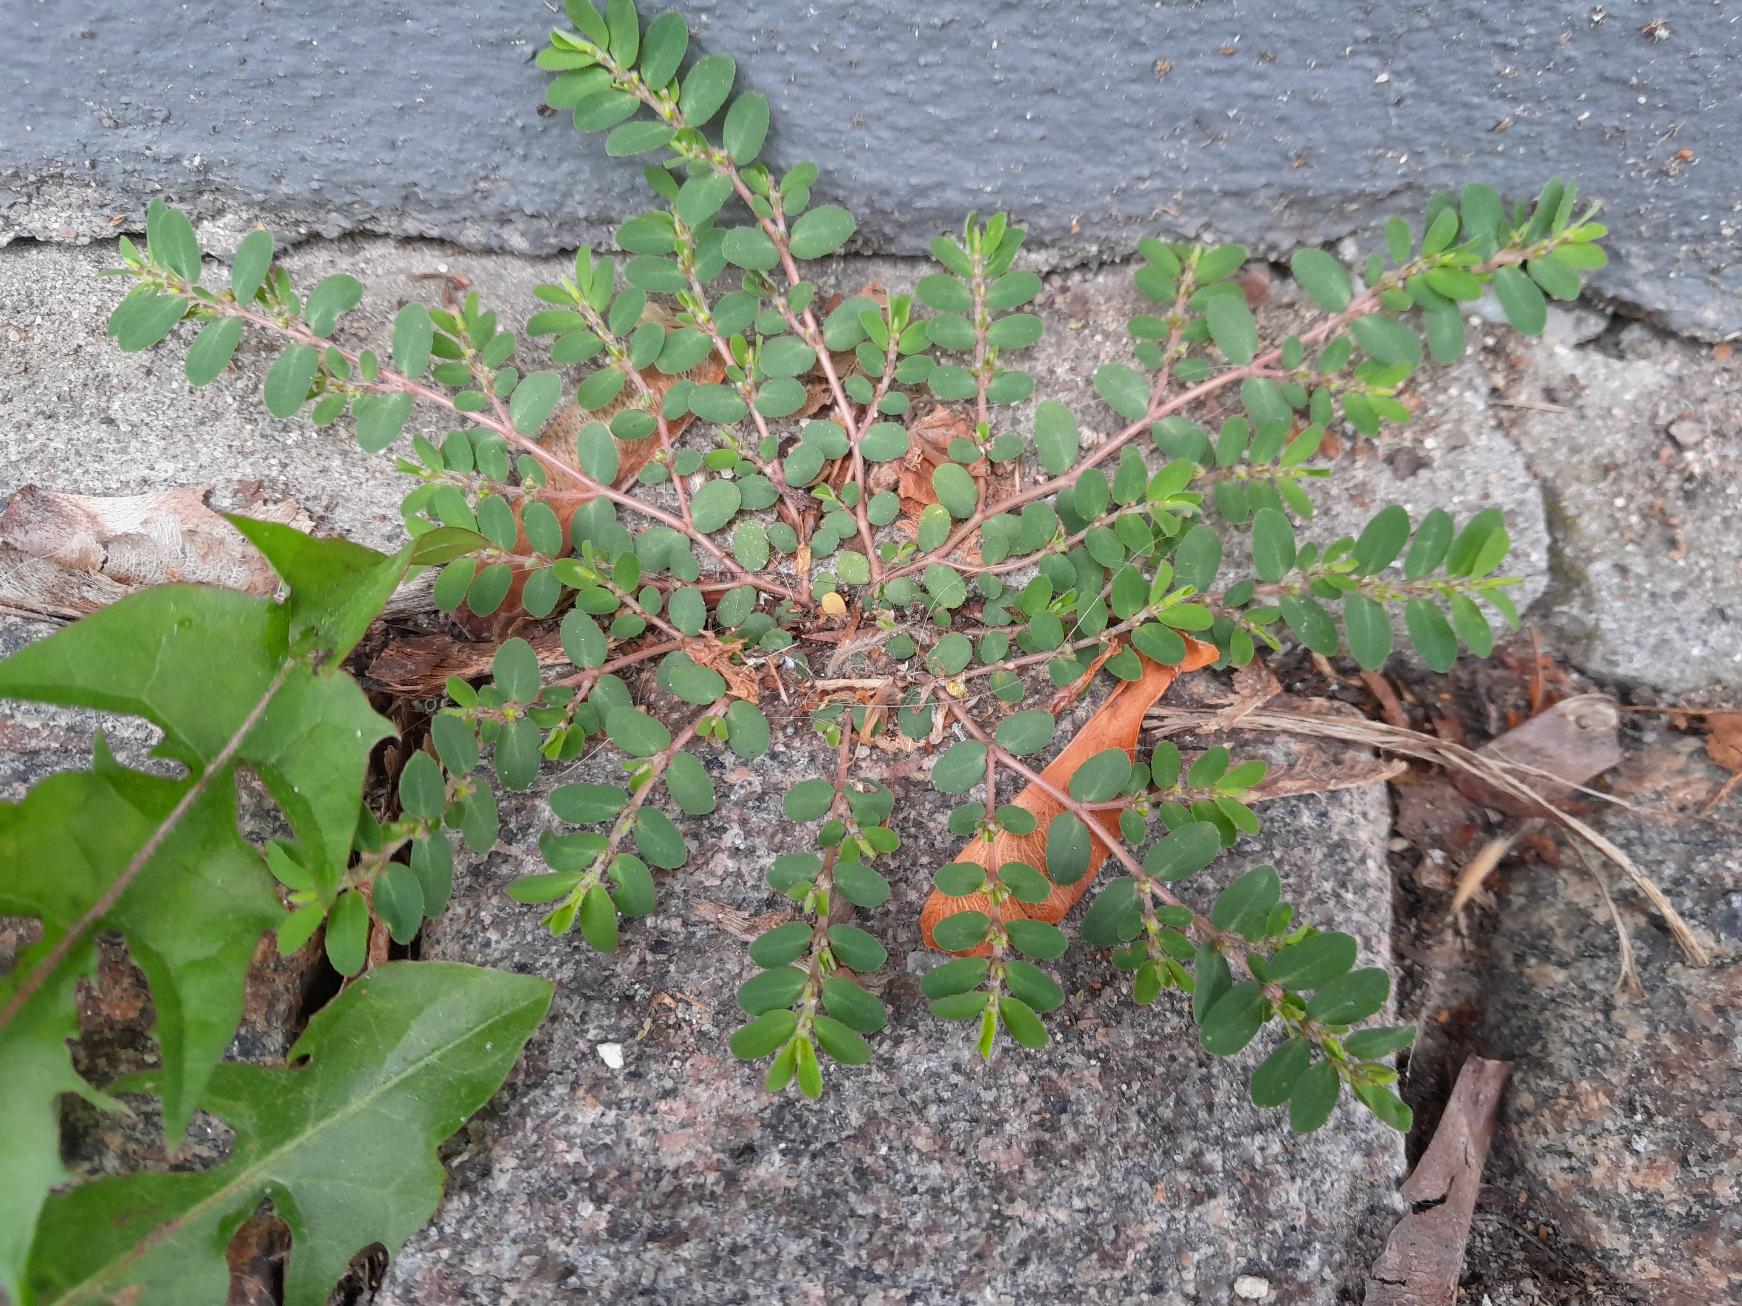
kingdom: Plantae
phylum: Tracheophyta
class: Magnoliopsida
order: Malpighiales
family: Euphorbiaceae
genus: Euphorbia
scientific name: Euphorbia prostrata
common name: Tiltrykt vortemælk
